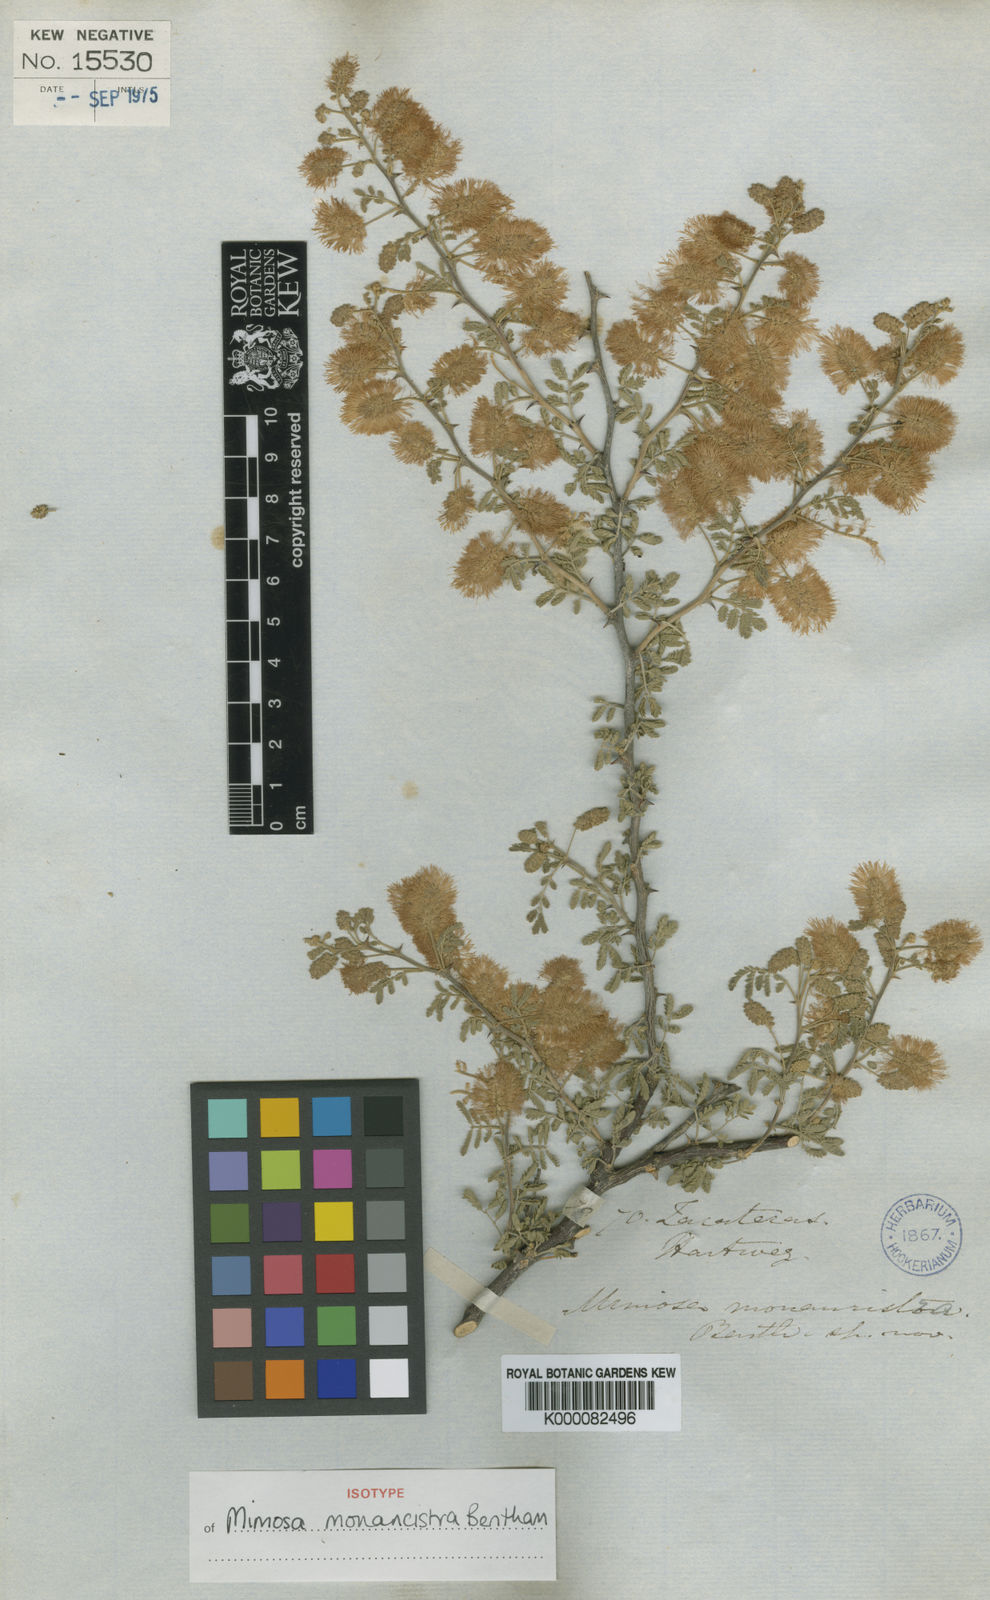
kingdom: Plantae
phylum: Tracheophyta
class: Magnoliopsida
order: Fabales
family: Fabaceae
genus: Mimosa
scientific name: Mimosa monancistra
